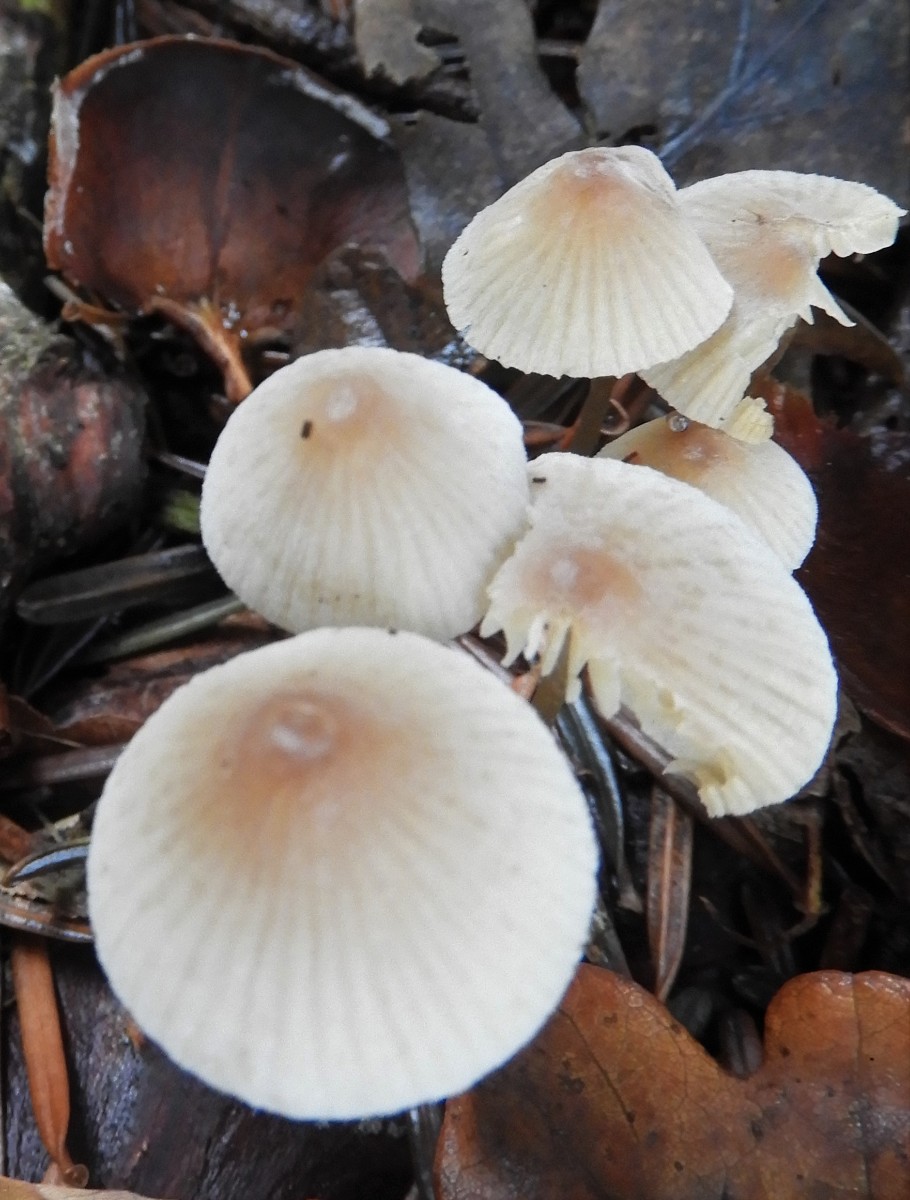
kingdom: Fungi
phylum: Basidiomycota
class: Agaricomycetes
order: Agaricales
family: Mycenaceae
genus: Mycena
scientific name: Mycena metata
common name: rødlig huesvamp
